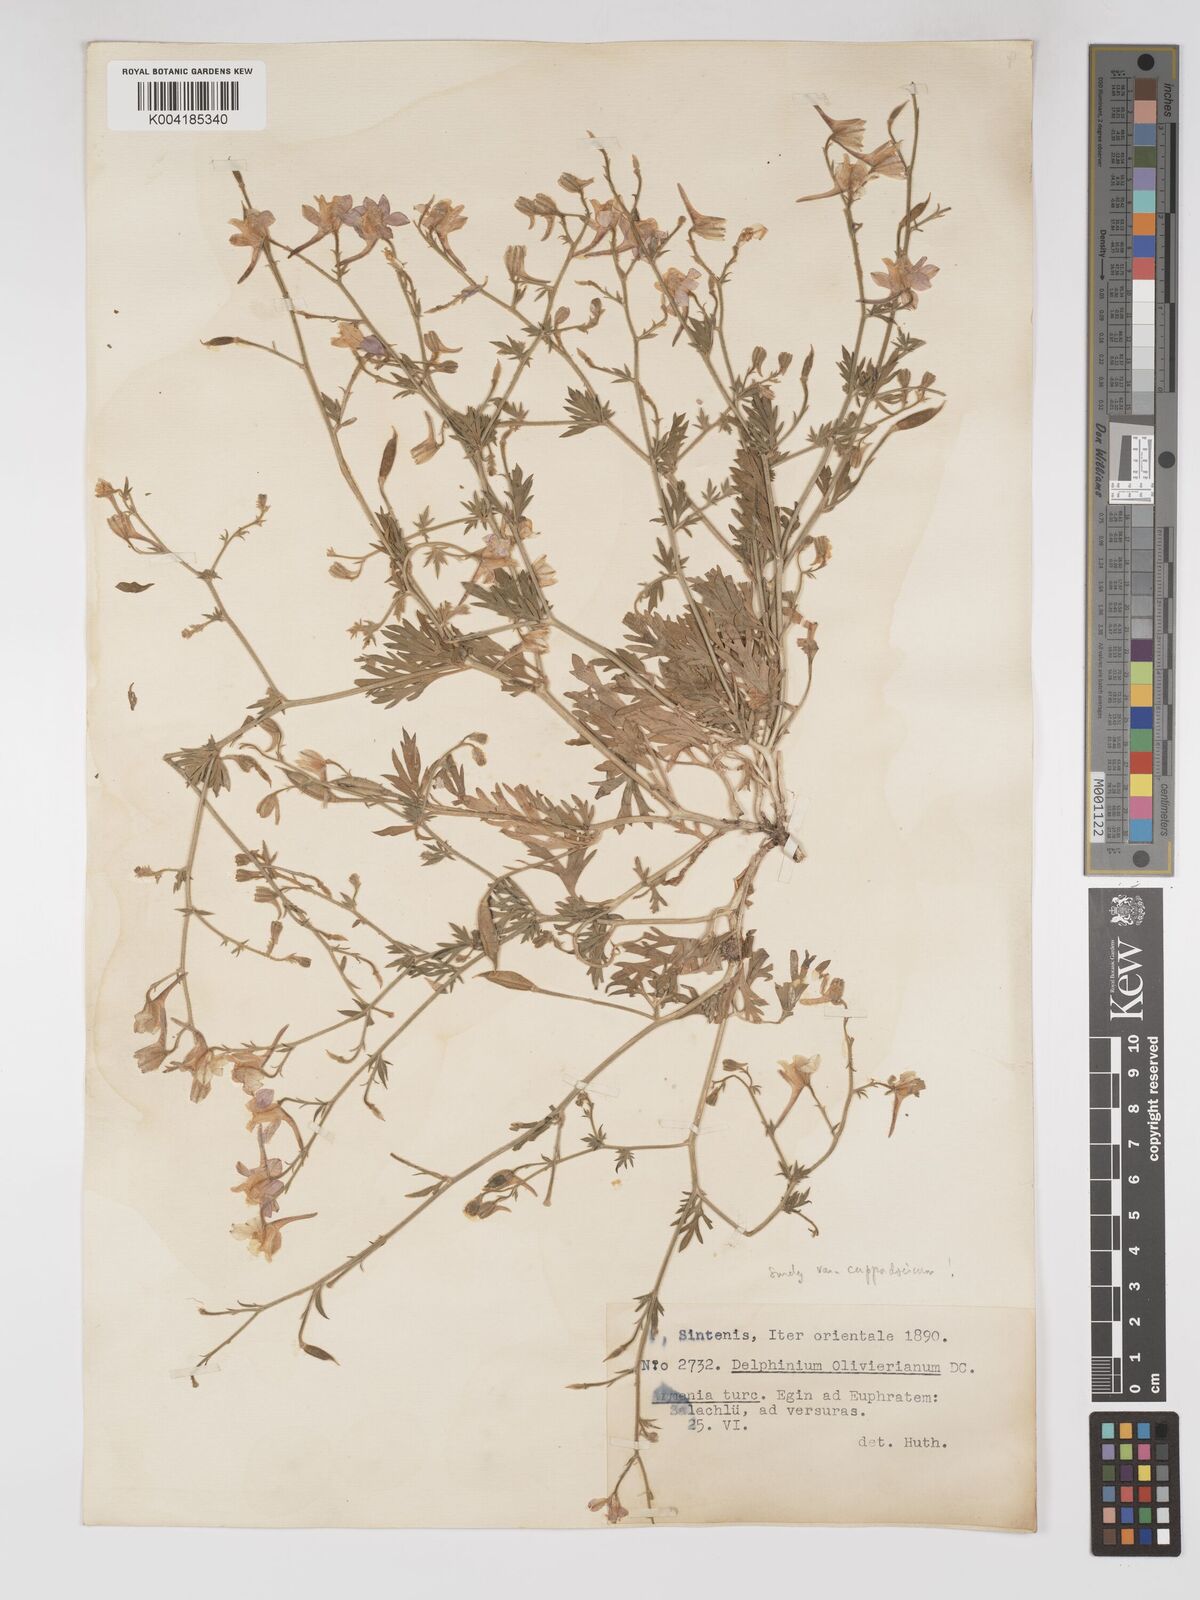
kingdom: Plantae
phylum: Tracheophyta
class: Magnoliopsida
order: Ranunculales
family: Ranunculaceae
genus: Delphinium
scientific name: Delphinium oliverianum
